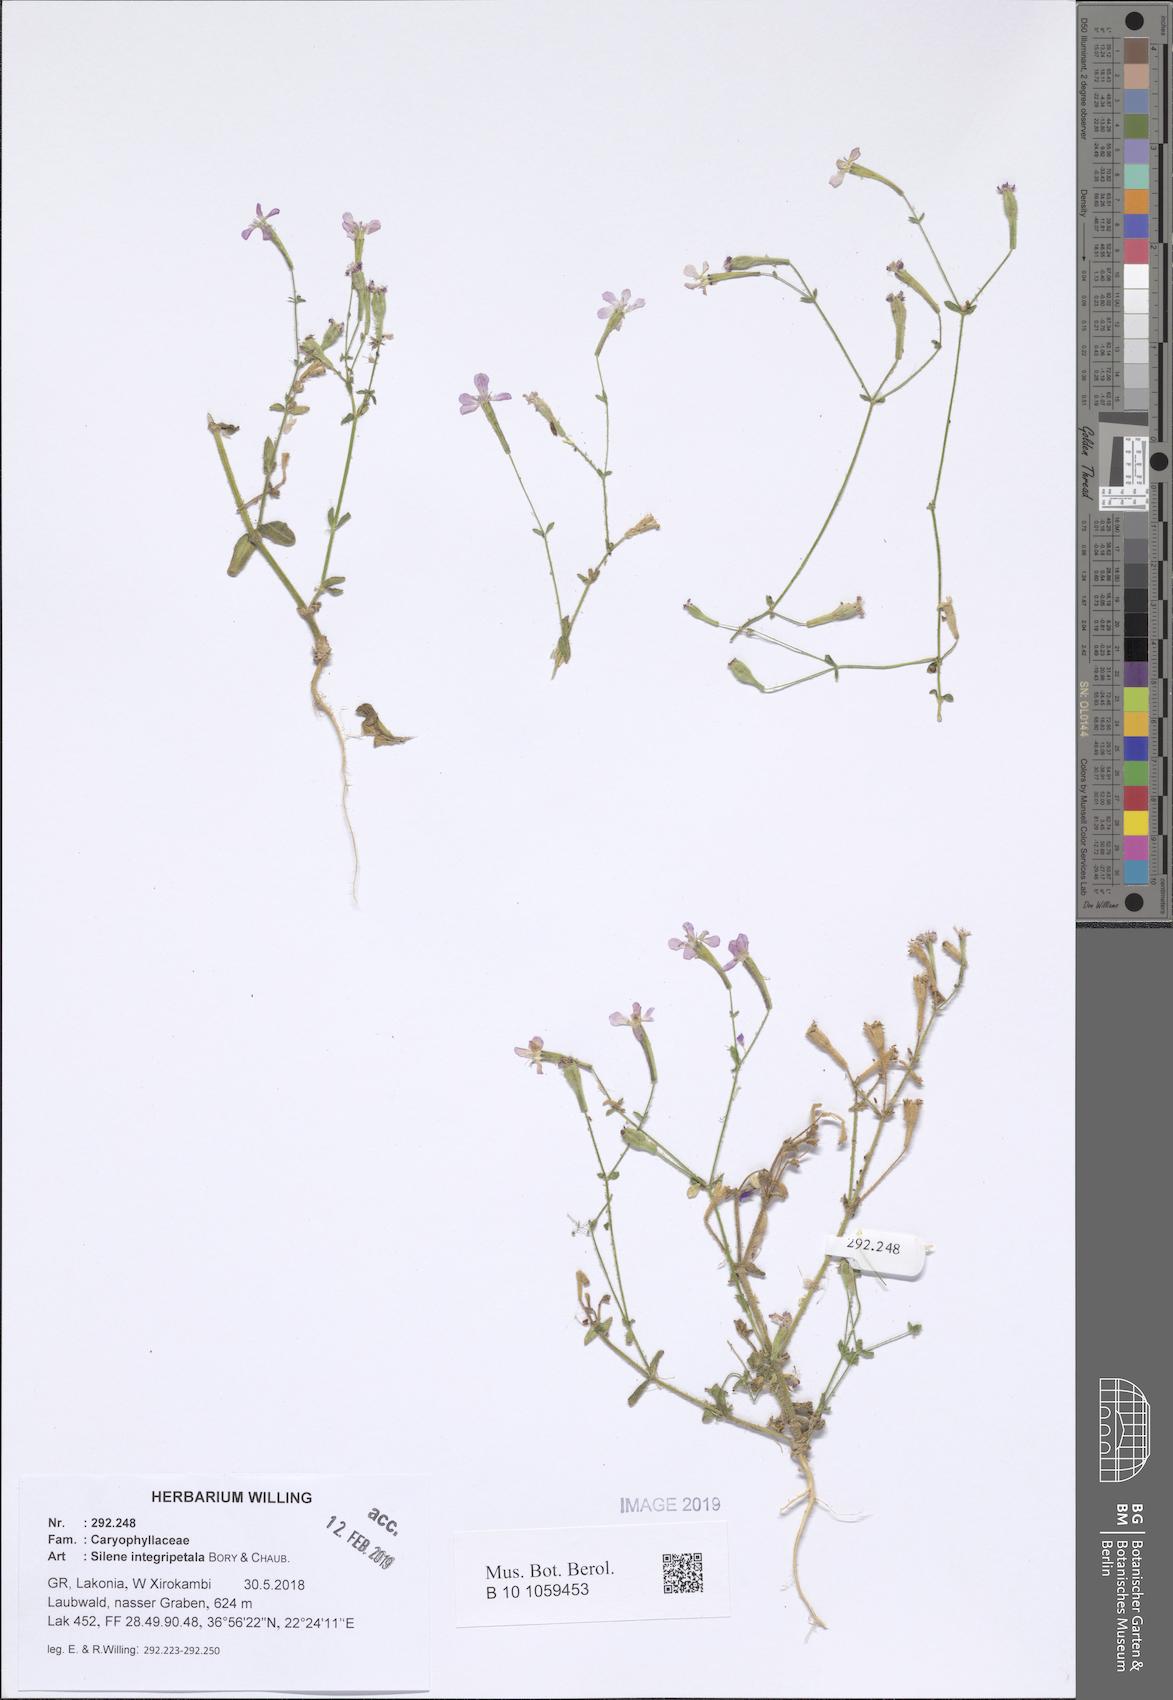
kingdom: Plantae
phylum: Tracheophyta
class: Magnoliopsida
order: Caryophyllales
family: Caryophyllaceae
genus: Silene
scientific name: Silene integripetala
